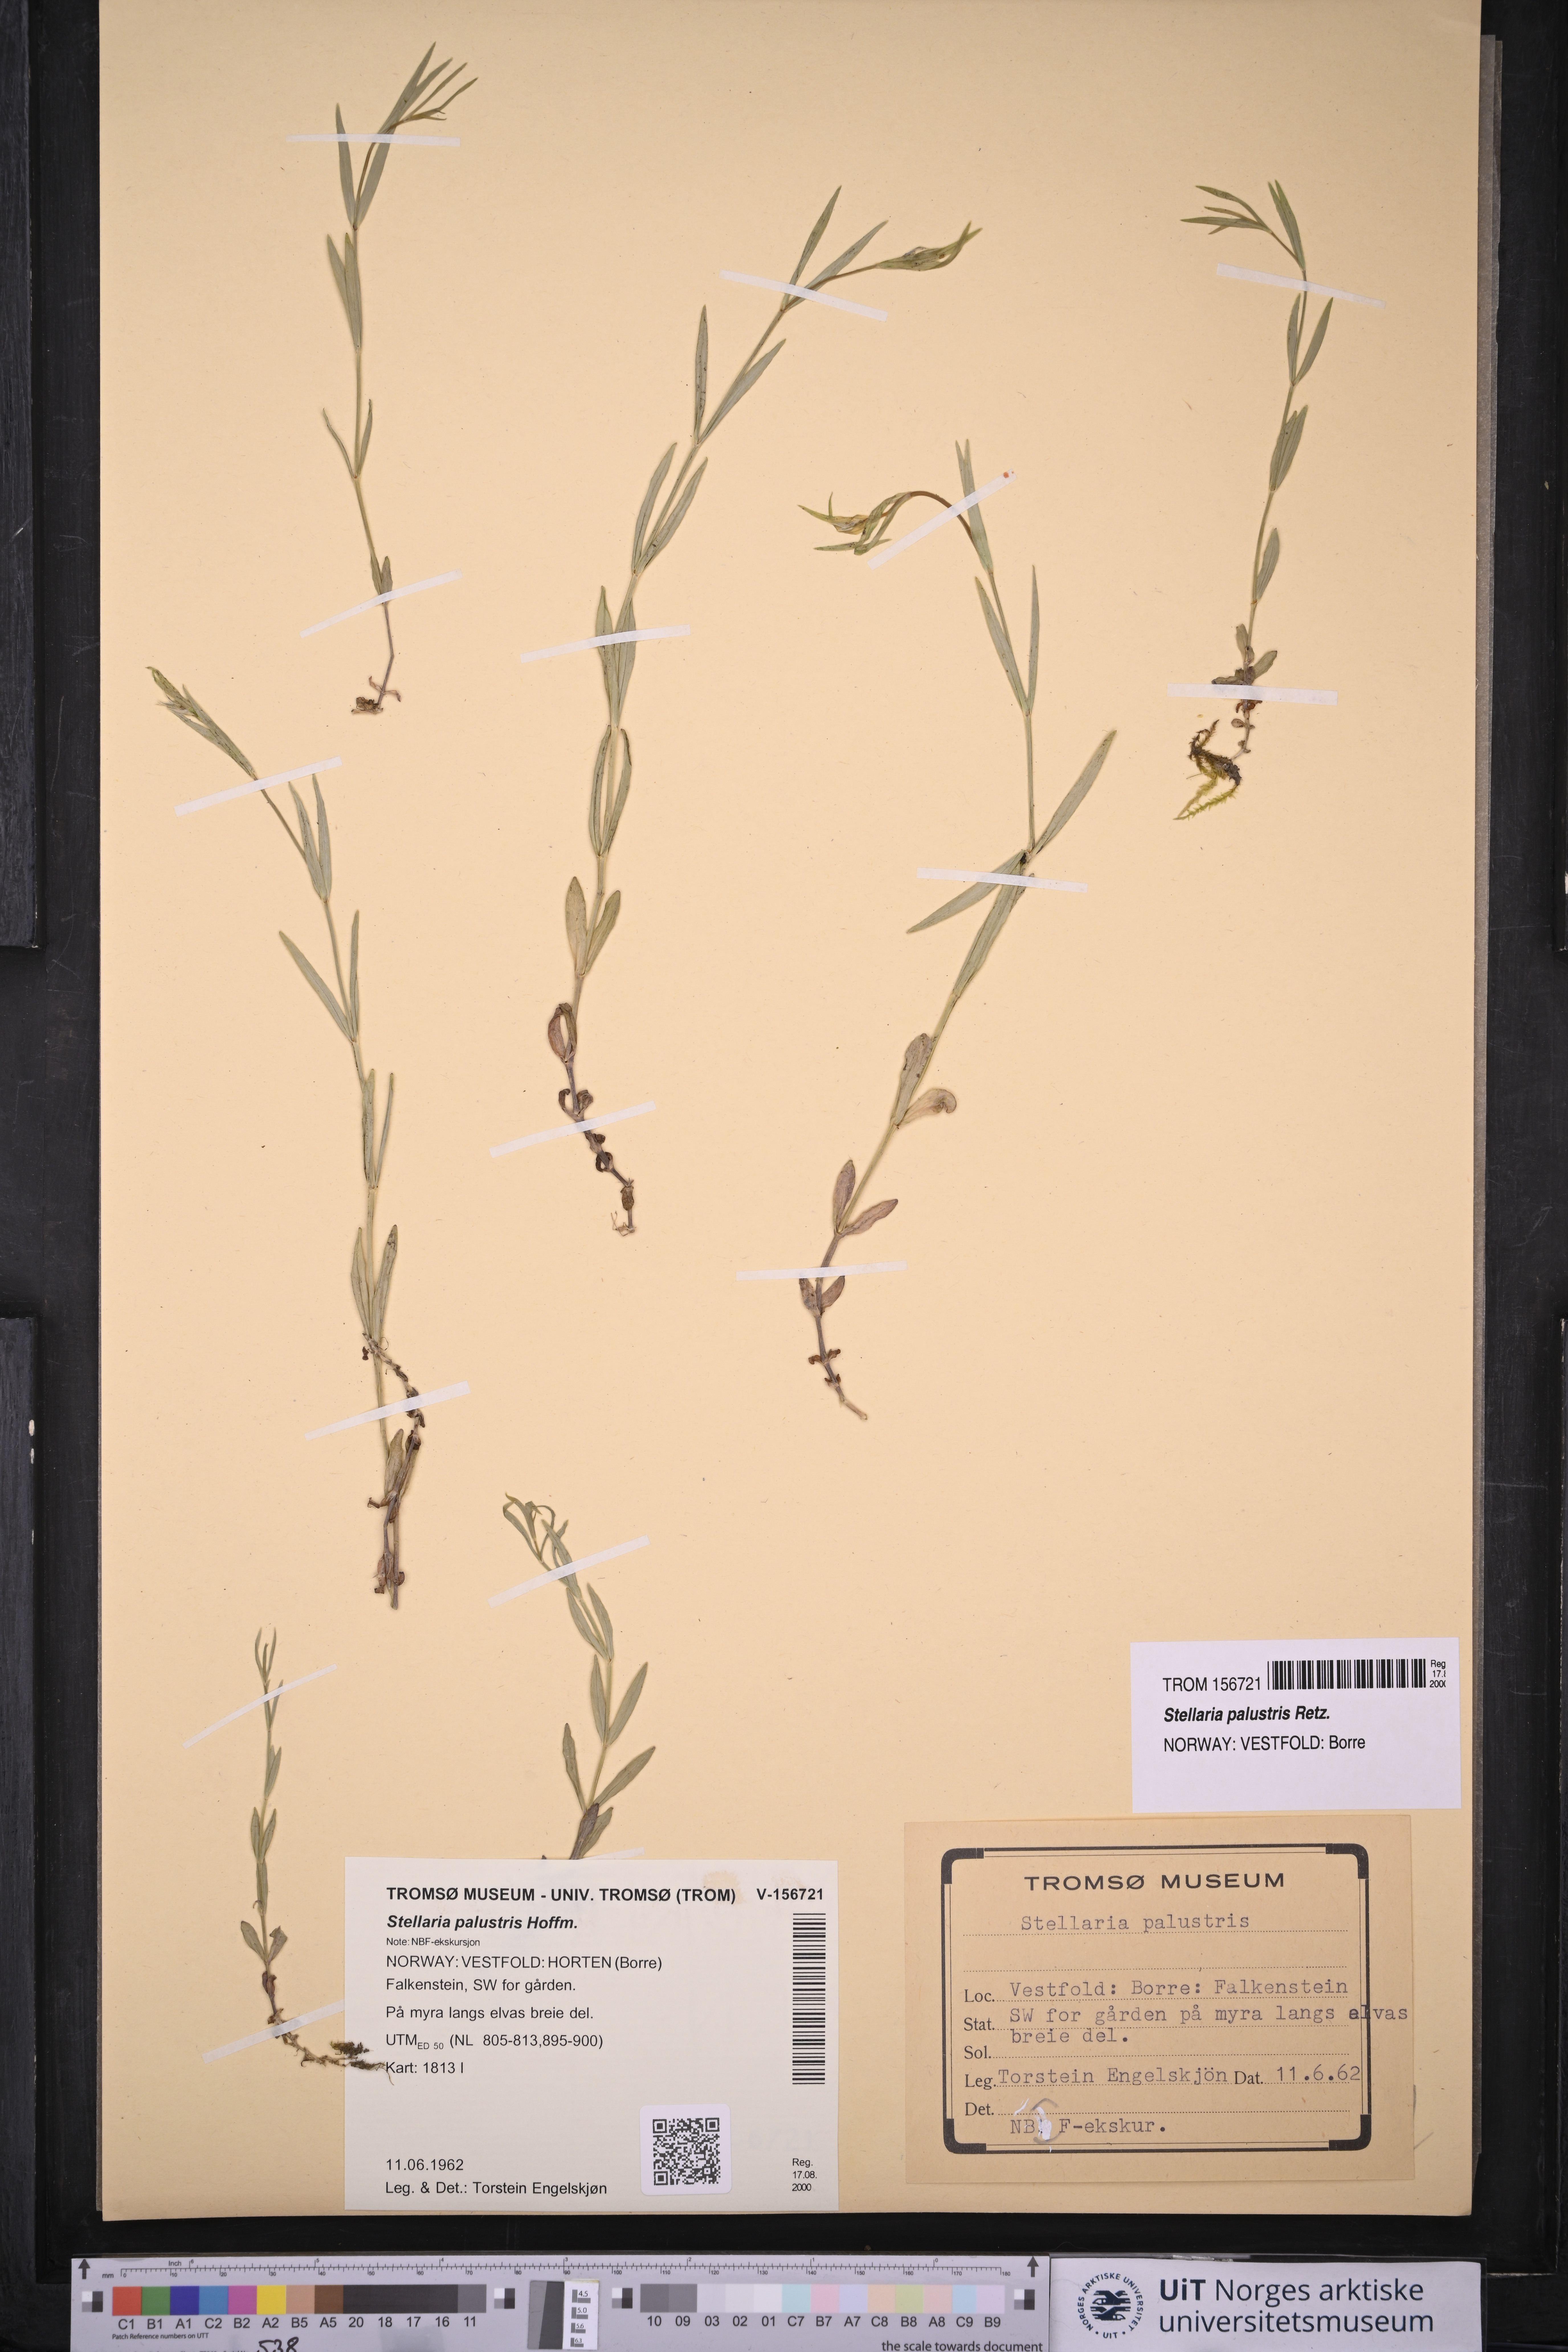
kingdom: Plantae
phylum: Tracheophyta
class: Magnoliopsida
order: Caryophyllales
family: Caryophyllaceae
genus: Stellaria
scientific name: Stellaria palustris
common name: Marsh stitchwort
